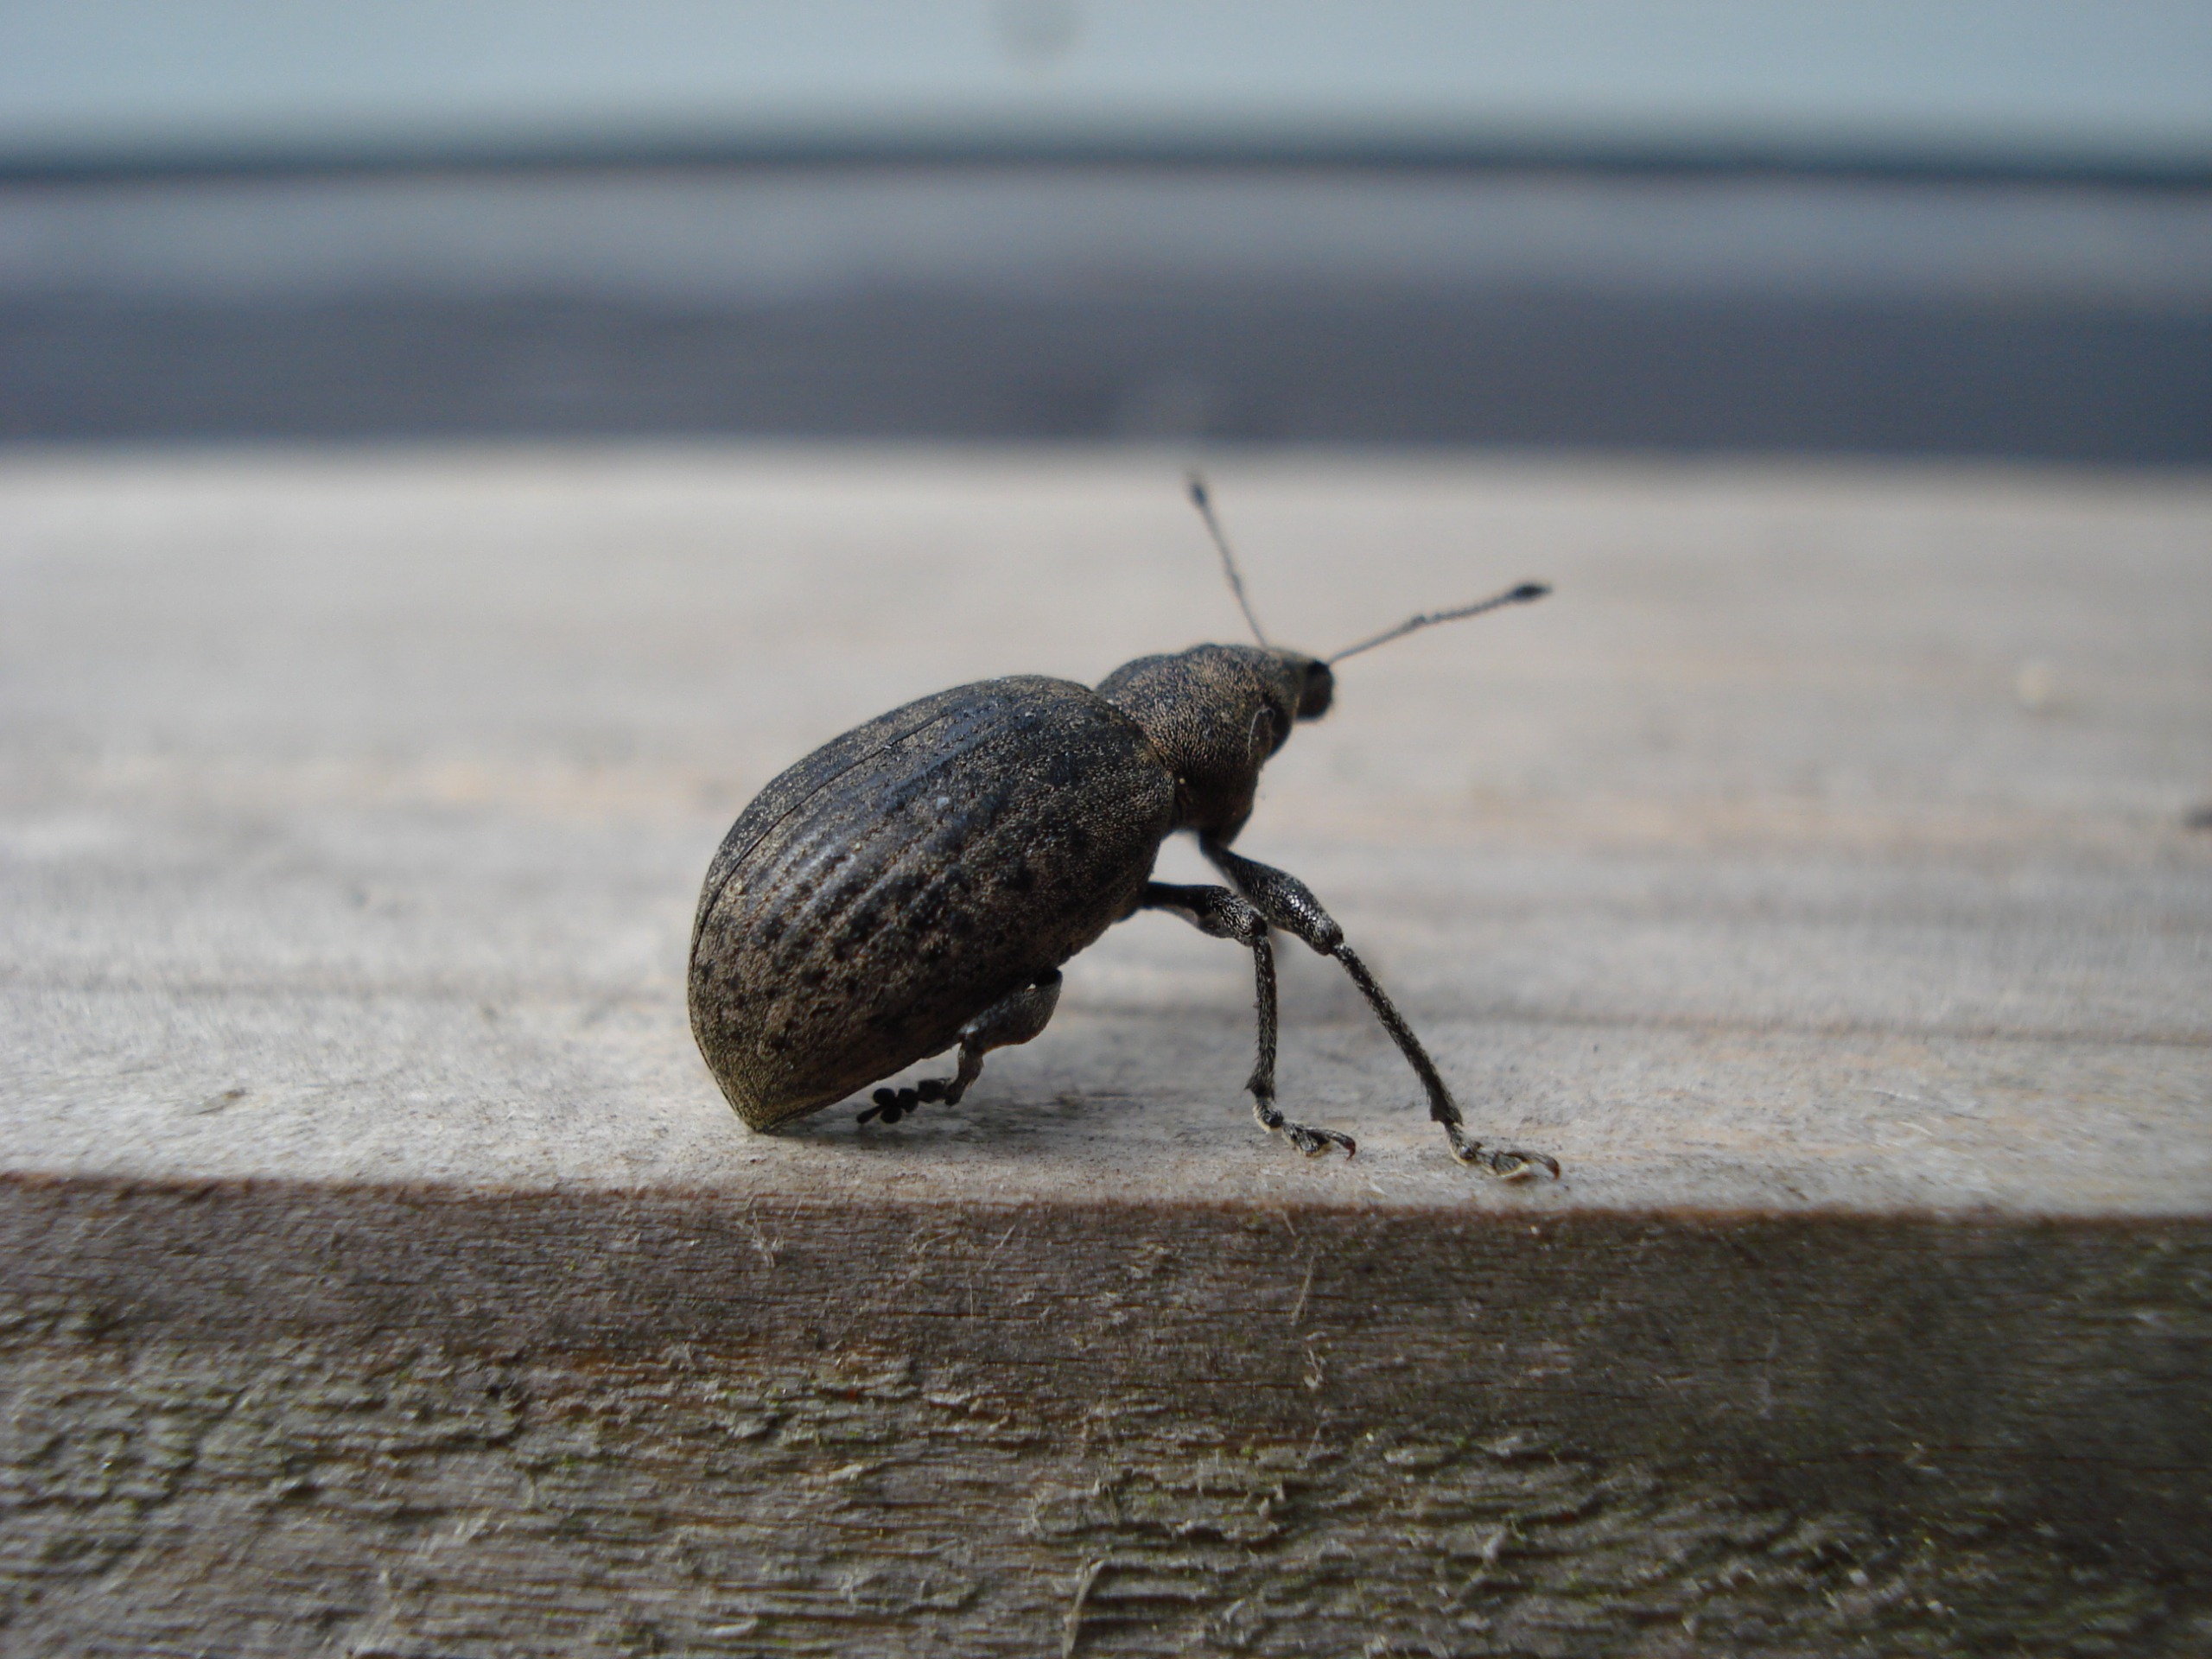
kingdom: Animalia
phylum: Arthropoda
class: Insecta
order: Coleoptera
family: Curculionidae
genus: Liophloeus
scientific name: Liophloeus tessulatus
